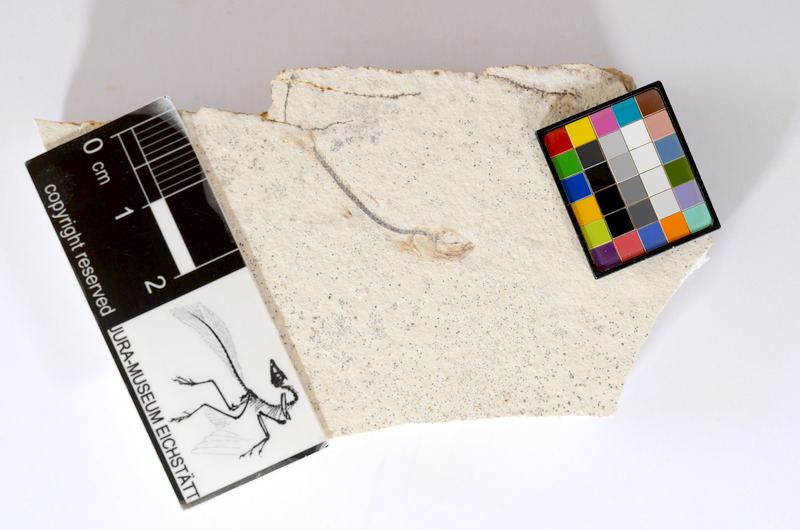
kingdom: Animalia
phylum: Chordata
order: Salmoniformes
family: Orthogonikleithridae
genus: Orthogonikleithrus
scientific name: Orthogonikleithrus hoelli
